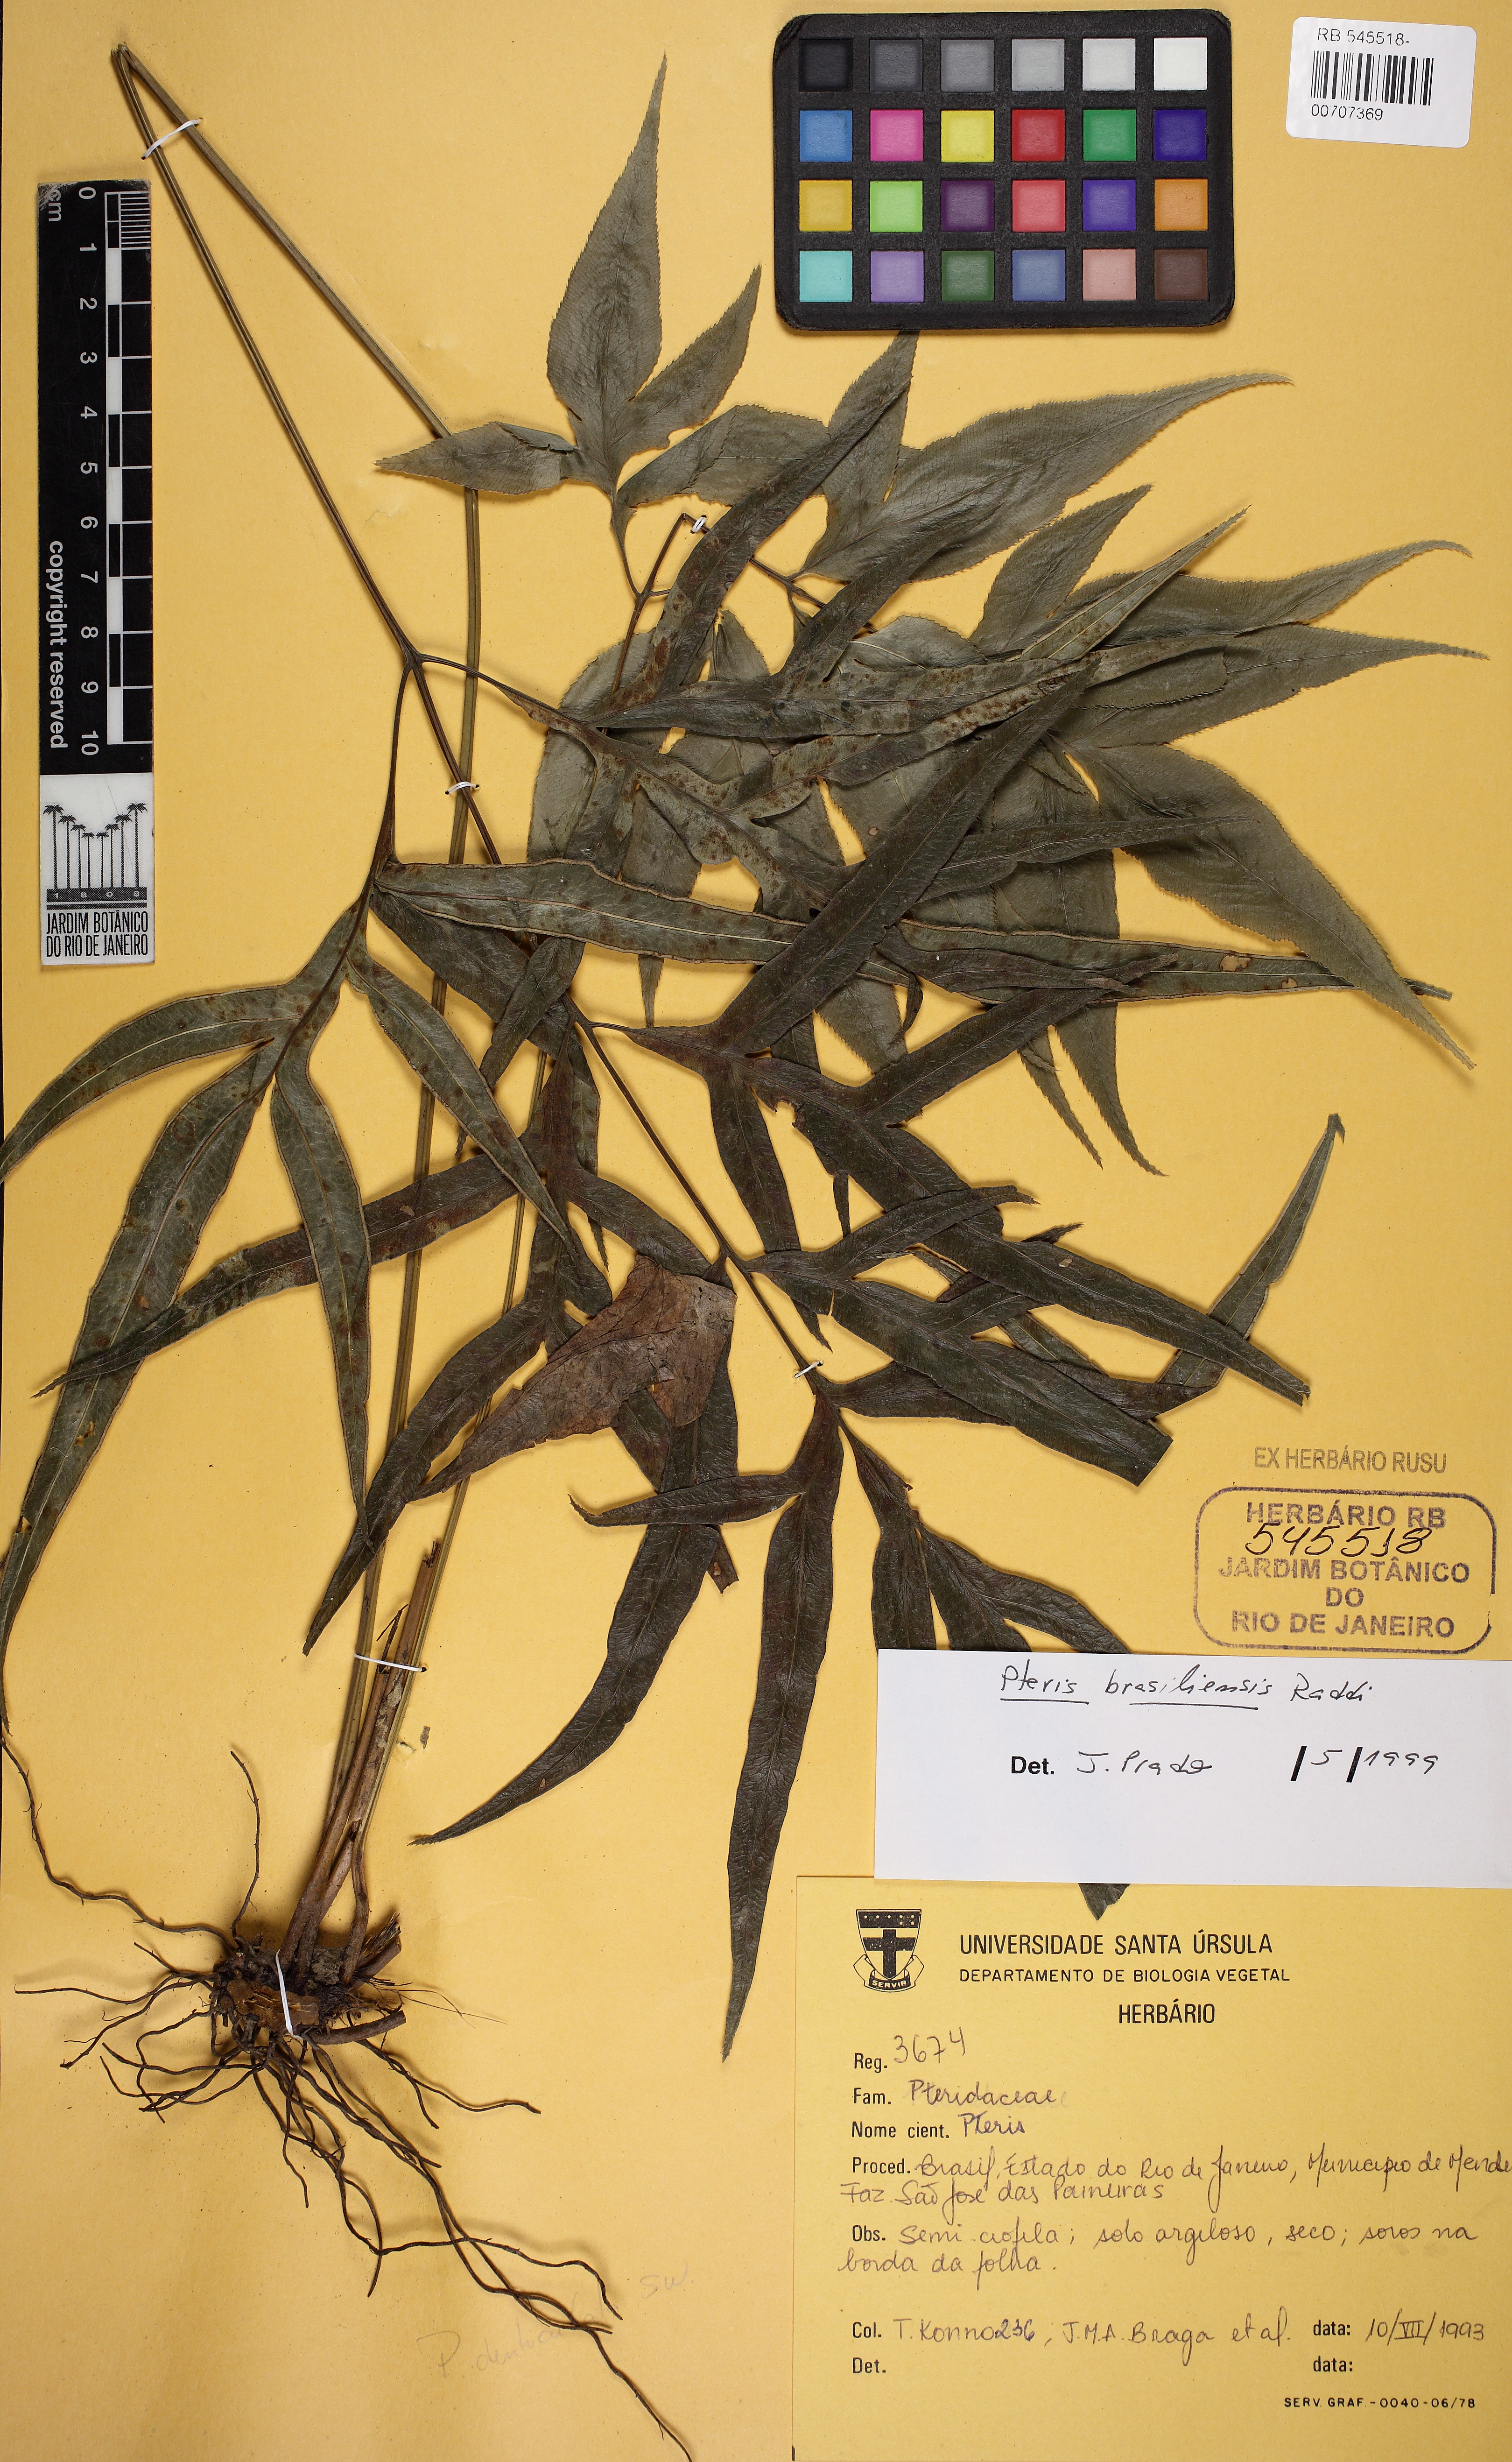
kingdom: Plantae
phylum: Tracheophyta
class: Polypodiopsida
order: Polypodiales
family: Pteridaceae
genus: Pteris
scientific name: Pteris brasiliensis
